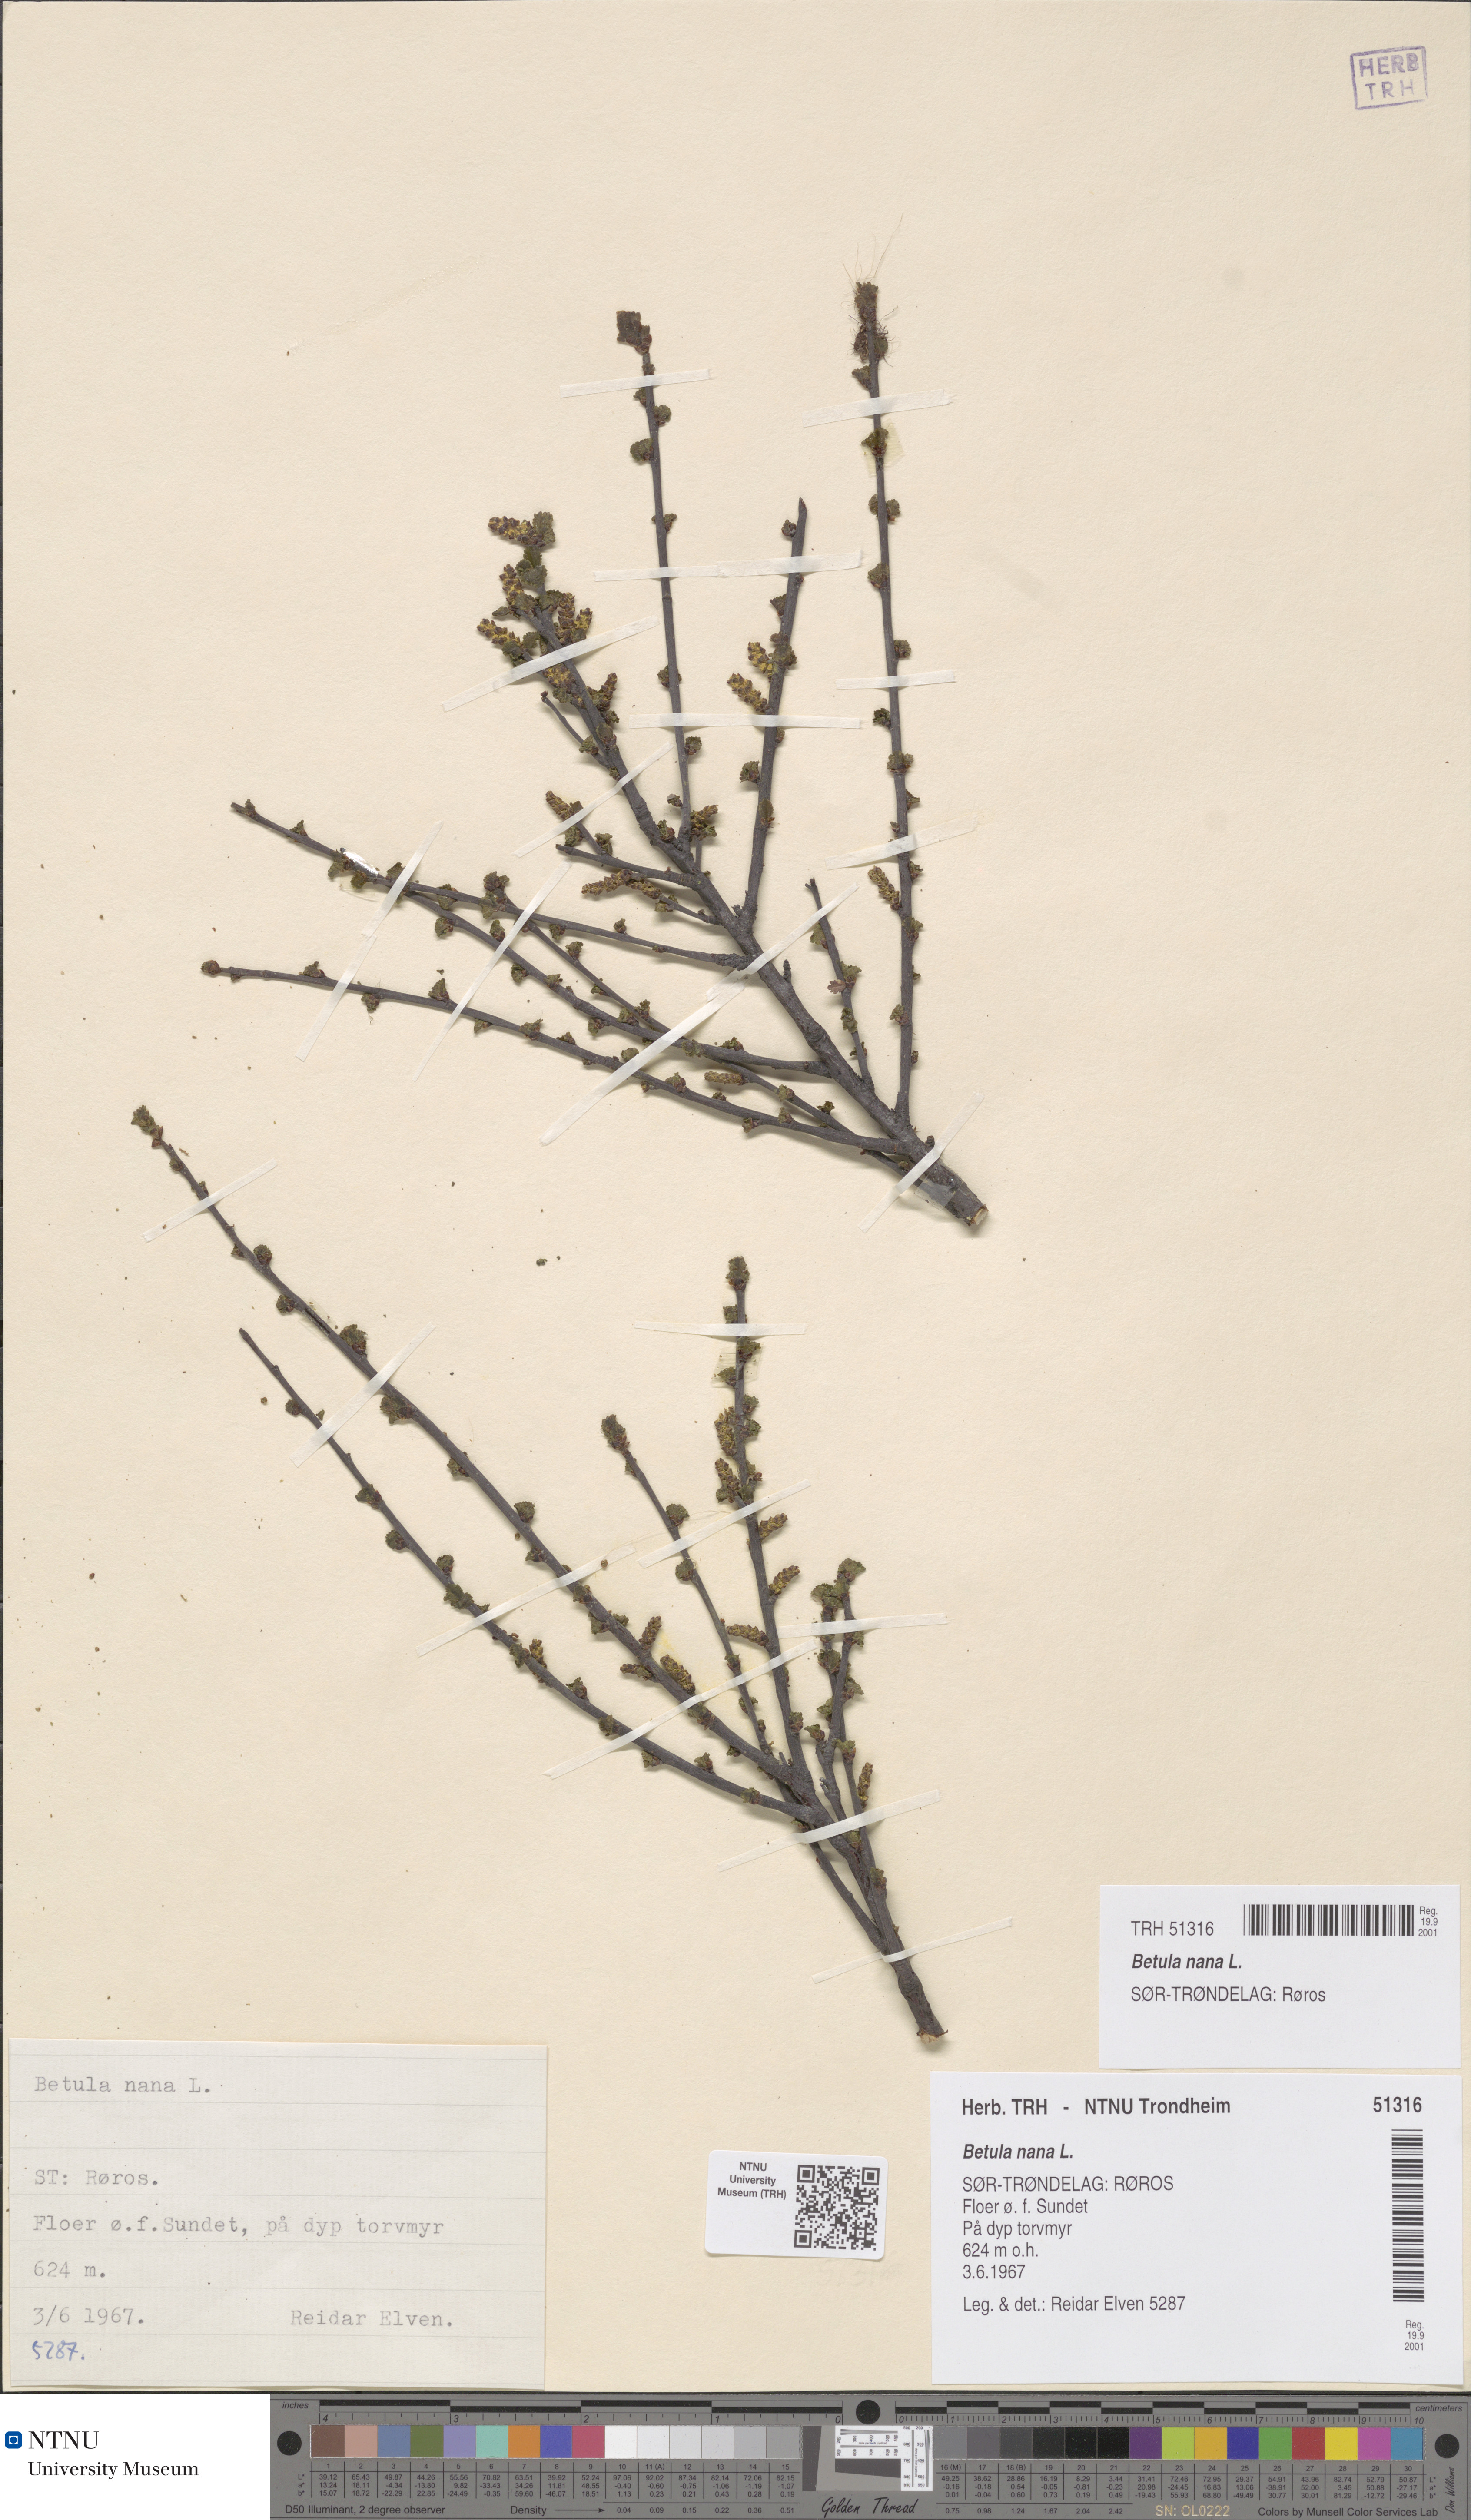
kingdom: Plantae
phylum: Tracheophyta
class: Magnoliopsida
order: Fagales
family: Betulaceae
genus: Betula
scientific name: Betula nana
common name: Arctic dwarf birch
